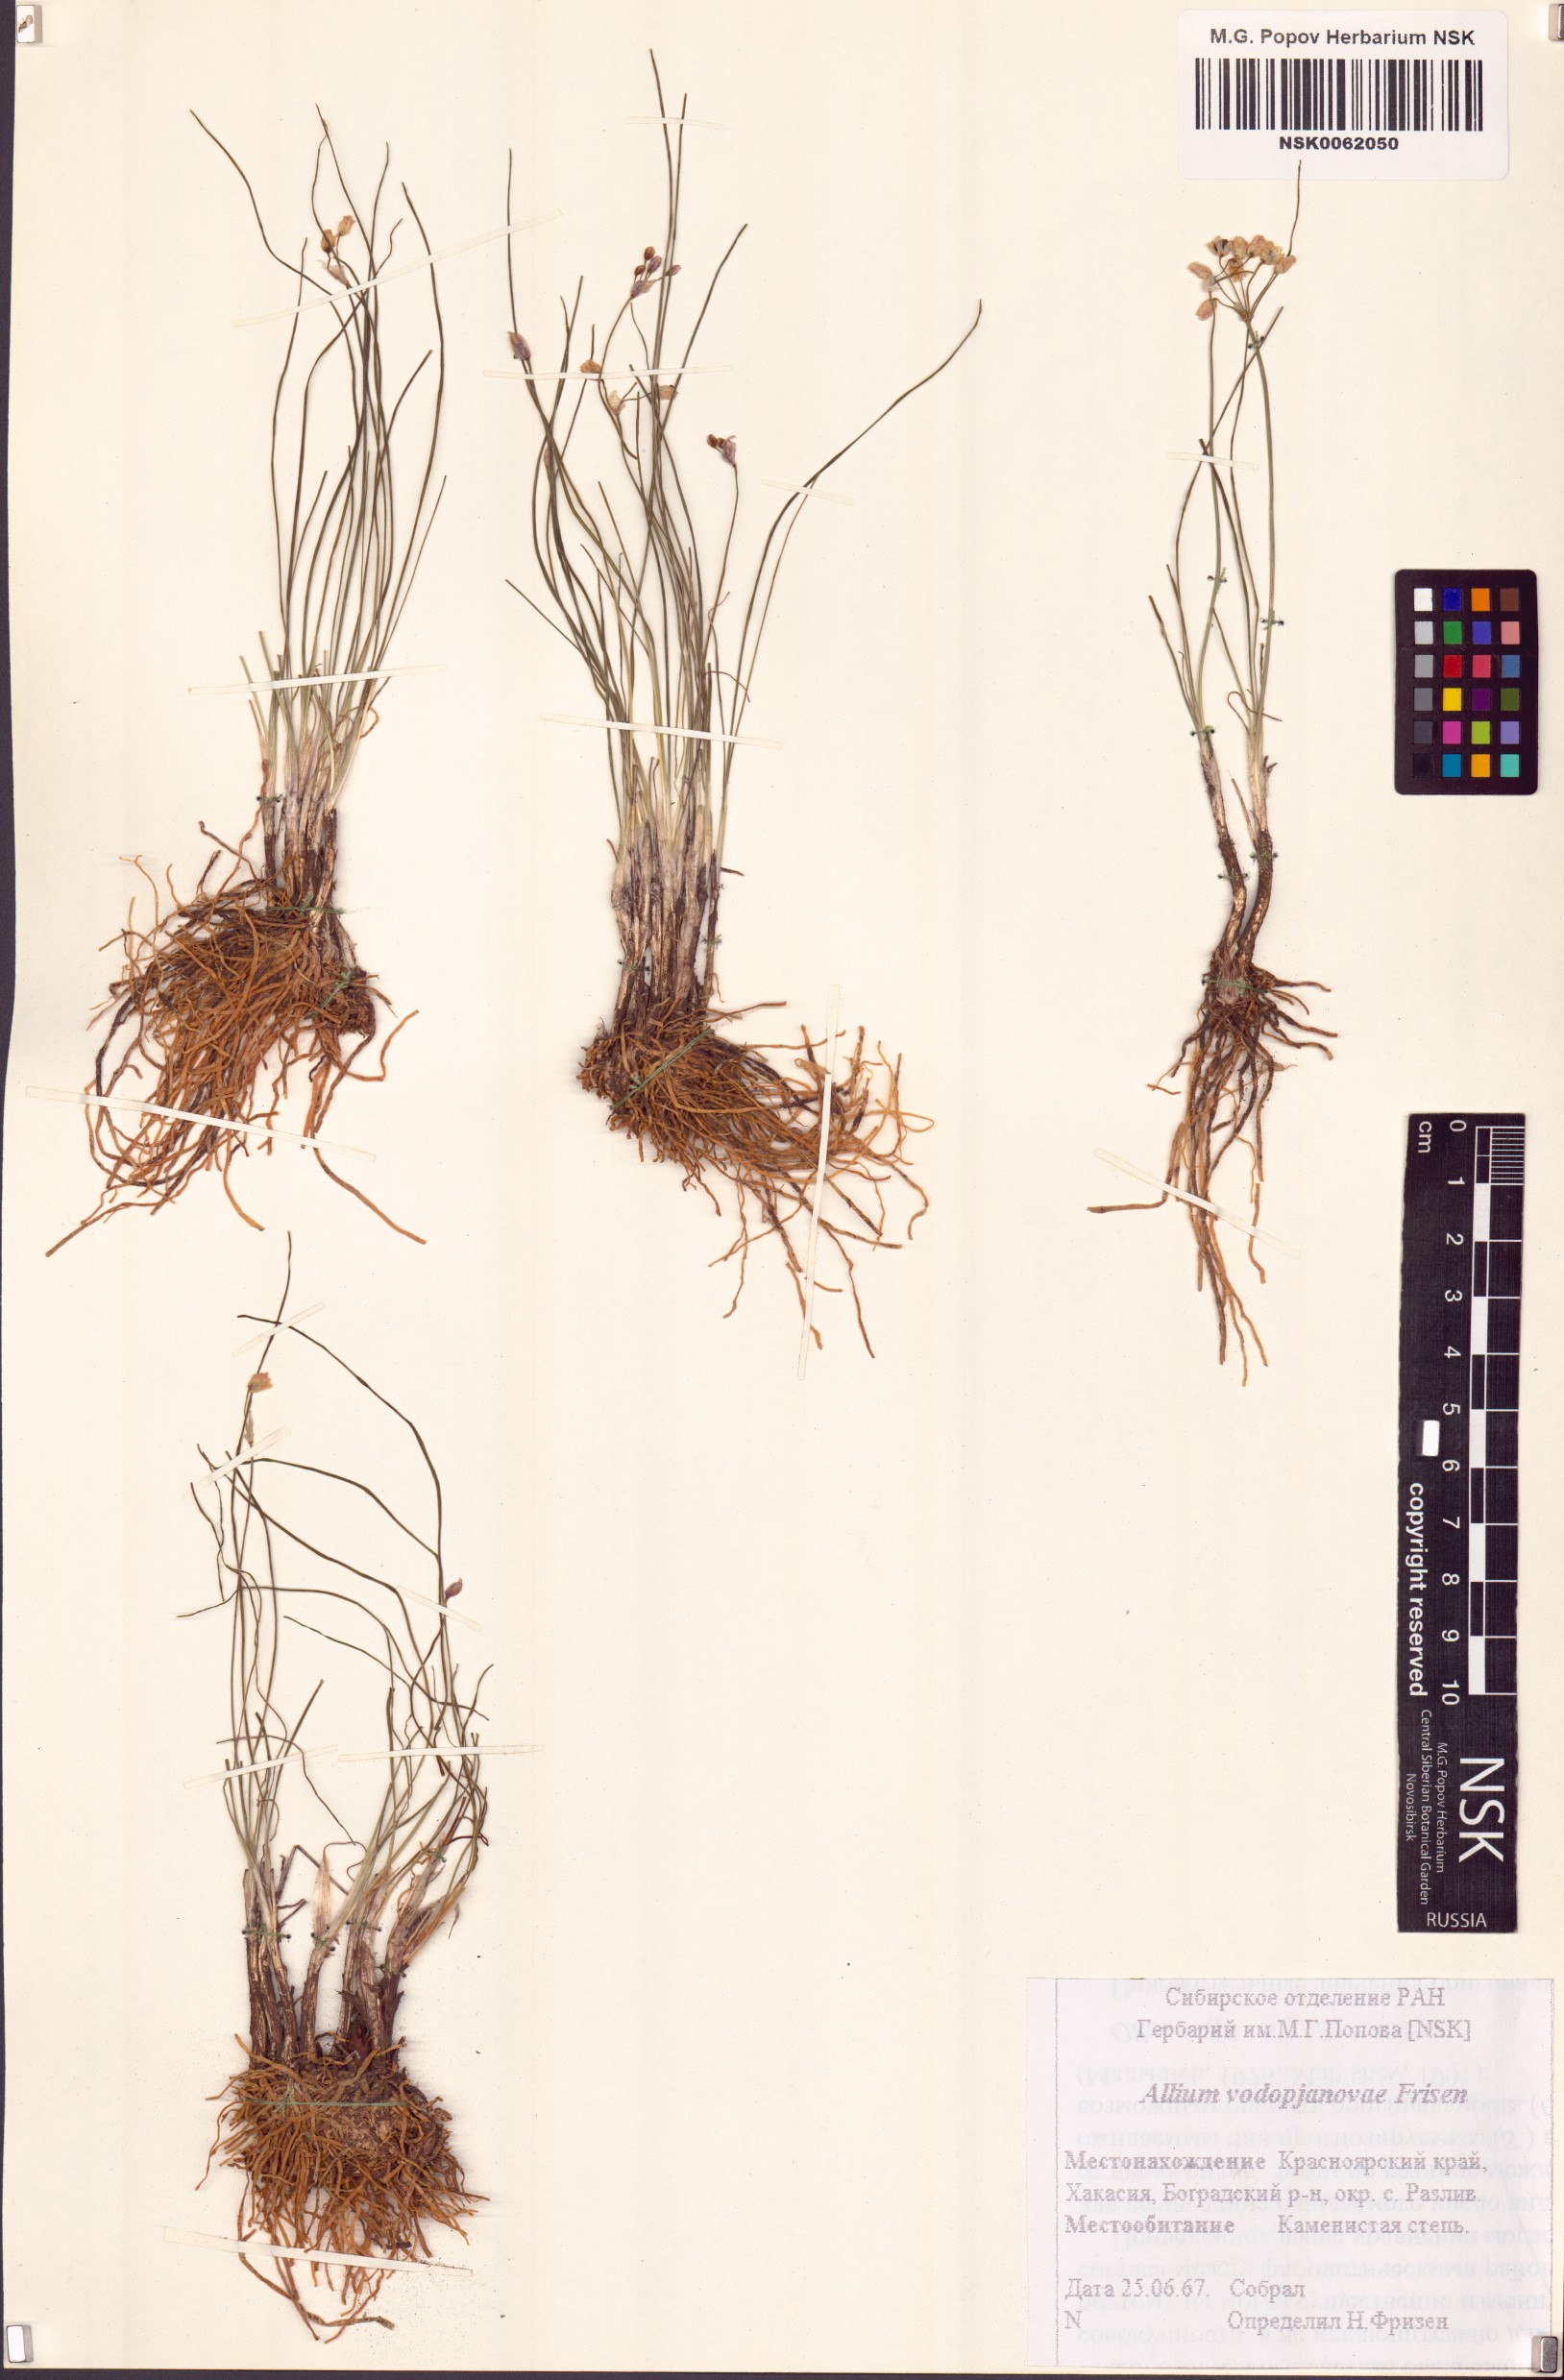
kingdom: Plantae
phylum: Tracheophyta
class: Liliopsida
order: Asparagales
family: Amaryllidaceae
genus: Allium
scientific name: Allium vodopjanovae
